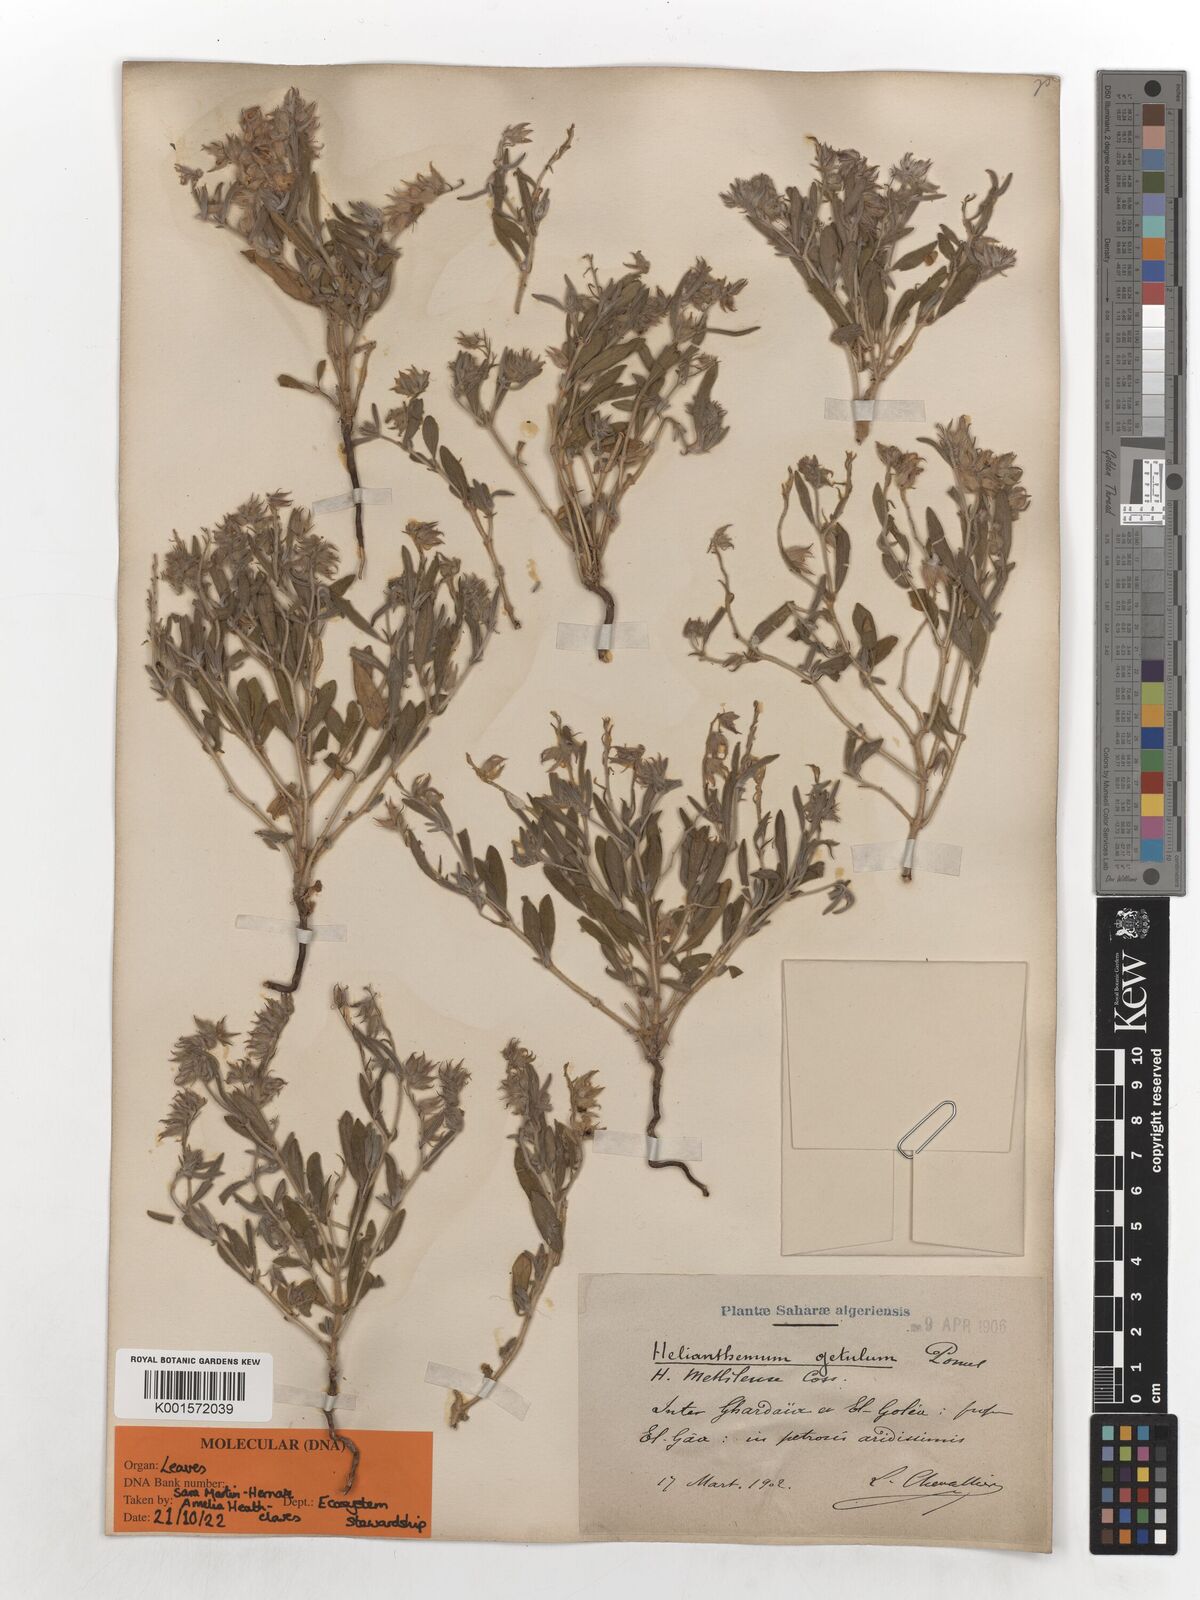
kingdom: Plantae
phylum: Tracheophyta
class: Magnoliopsida
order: Malvales
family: Cistaceae
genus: Helianthemum
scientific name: Helianthemum getulum
